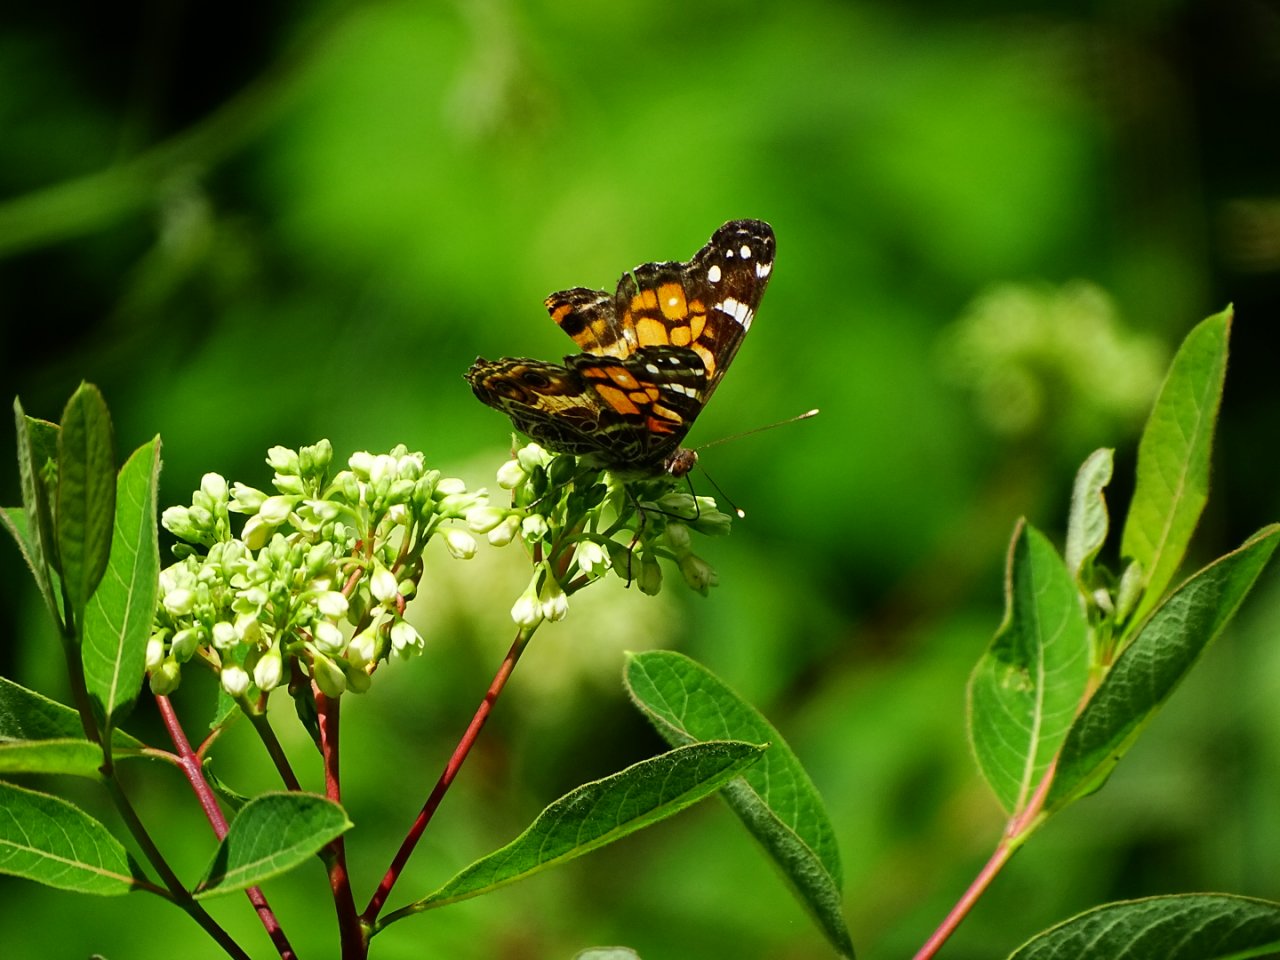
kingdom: Animalia
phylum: Arthropoda
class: Insecta
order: Lepidoptera
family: Nymphalidae
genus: Vanessa
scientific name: Vanessa virginiensis
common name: American Lady
